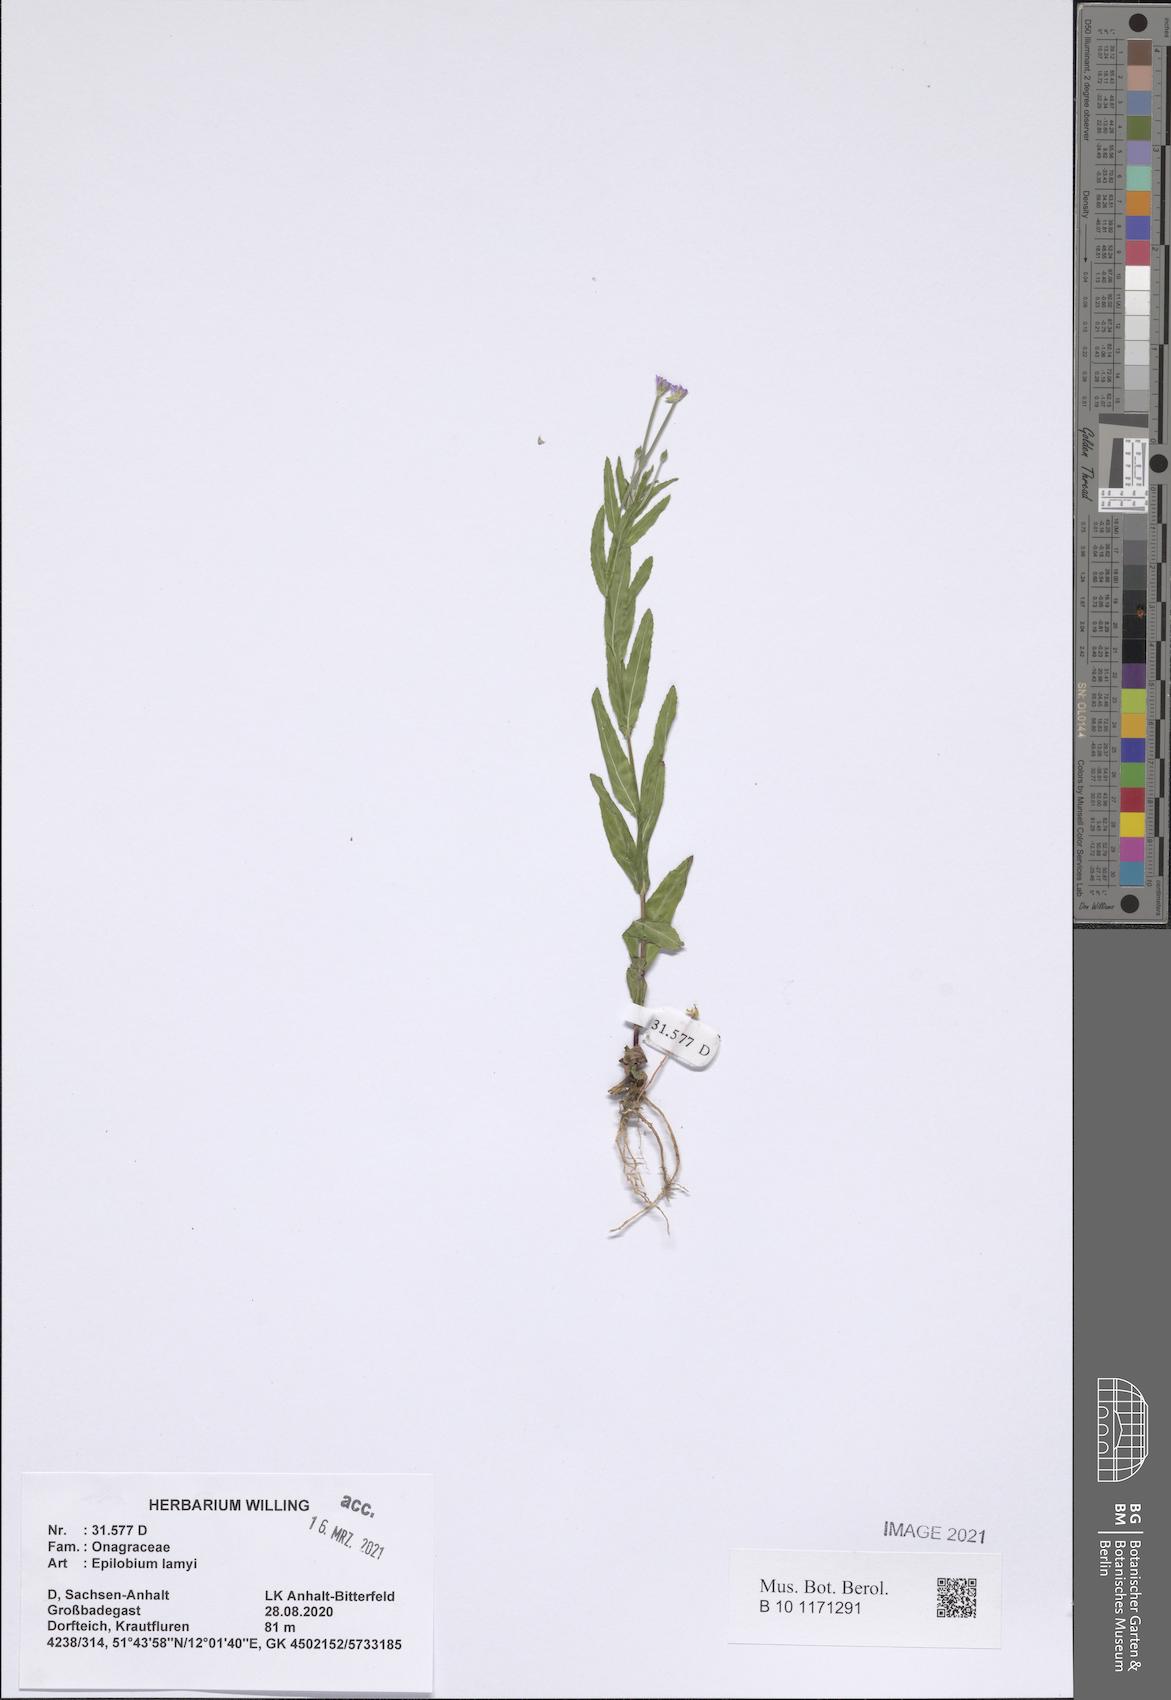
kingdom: Plantae
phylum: Tracheophyta
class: Magnoliopsida
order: Myrtales
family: Onagraceae
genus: Epilobium
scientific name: Epilobium lamyi
